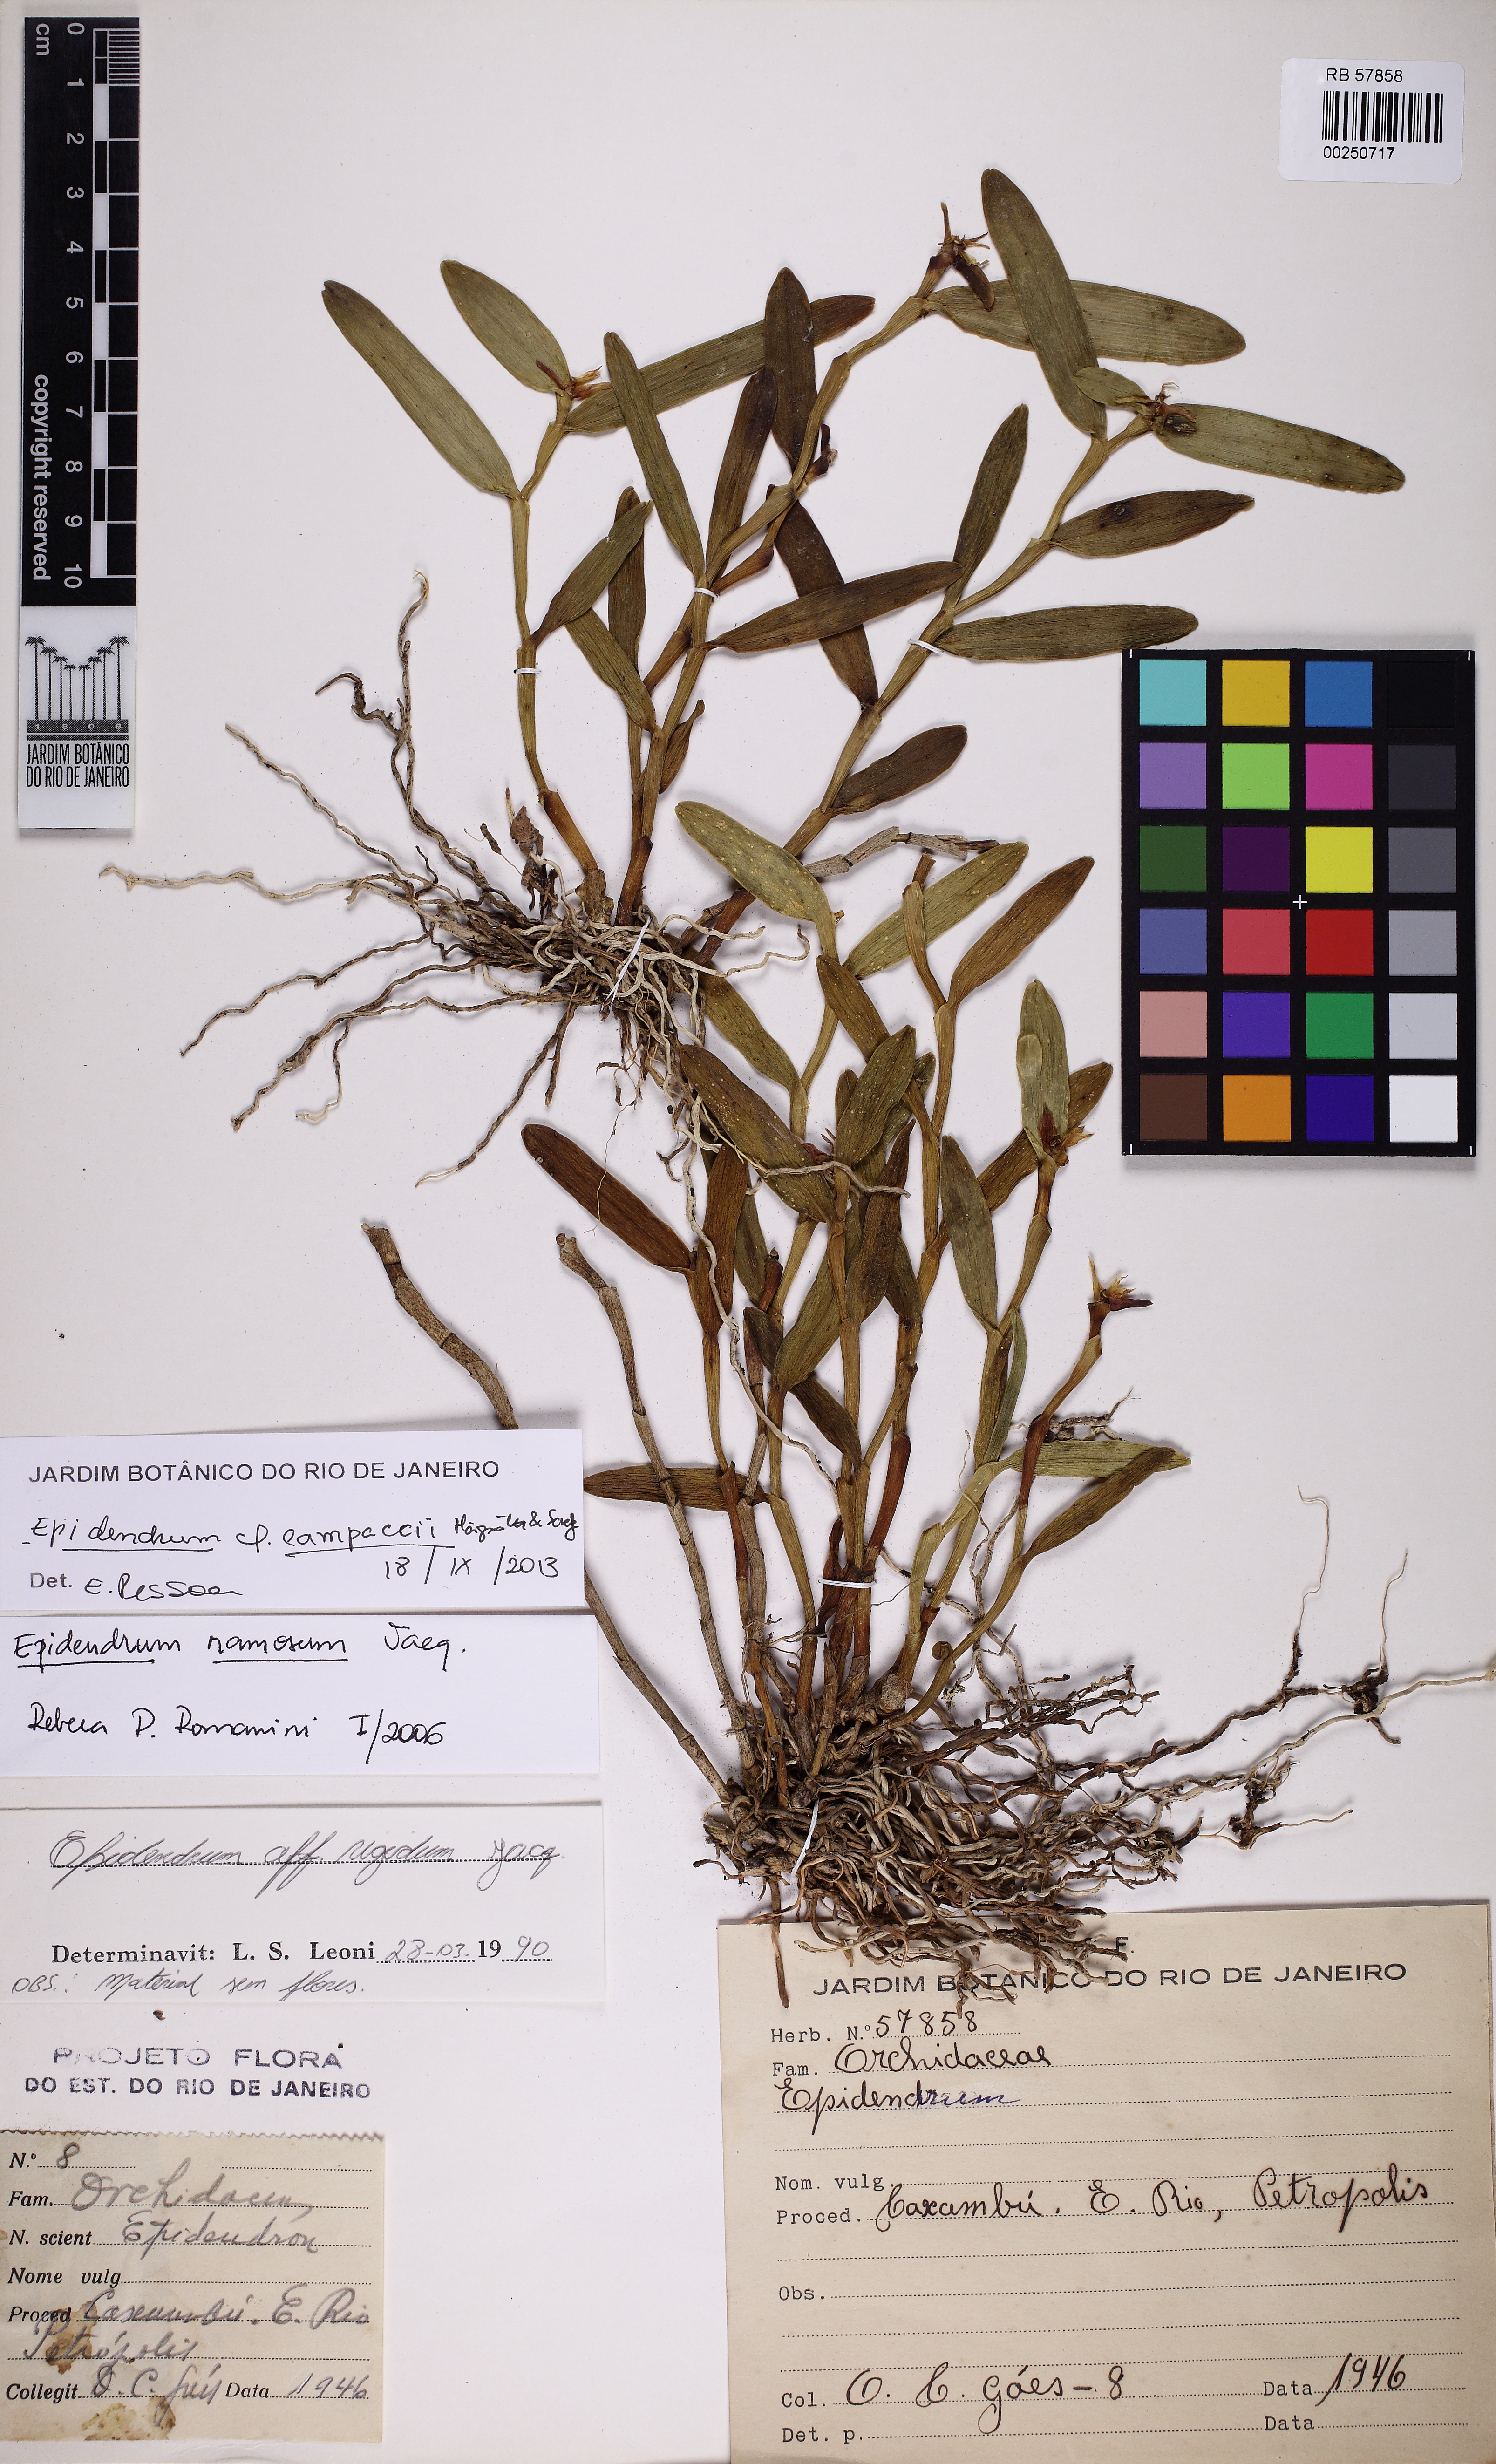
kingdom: Plantae
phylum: Tracheophyta
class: Liliopsida
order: Asparagales
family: Orchidaceae
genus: Epidendrum
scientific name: Epidendrum pseudodifforme
